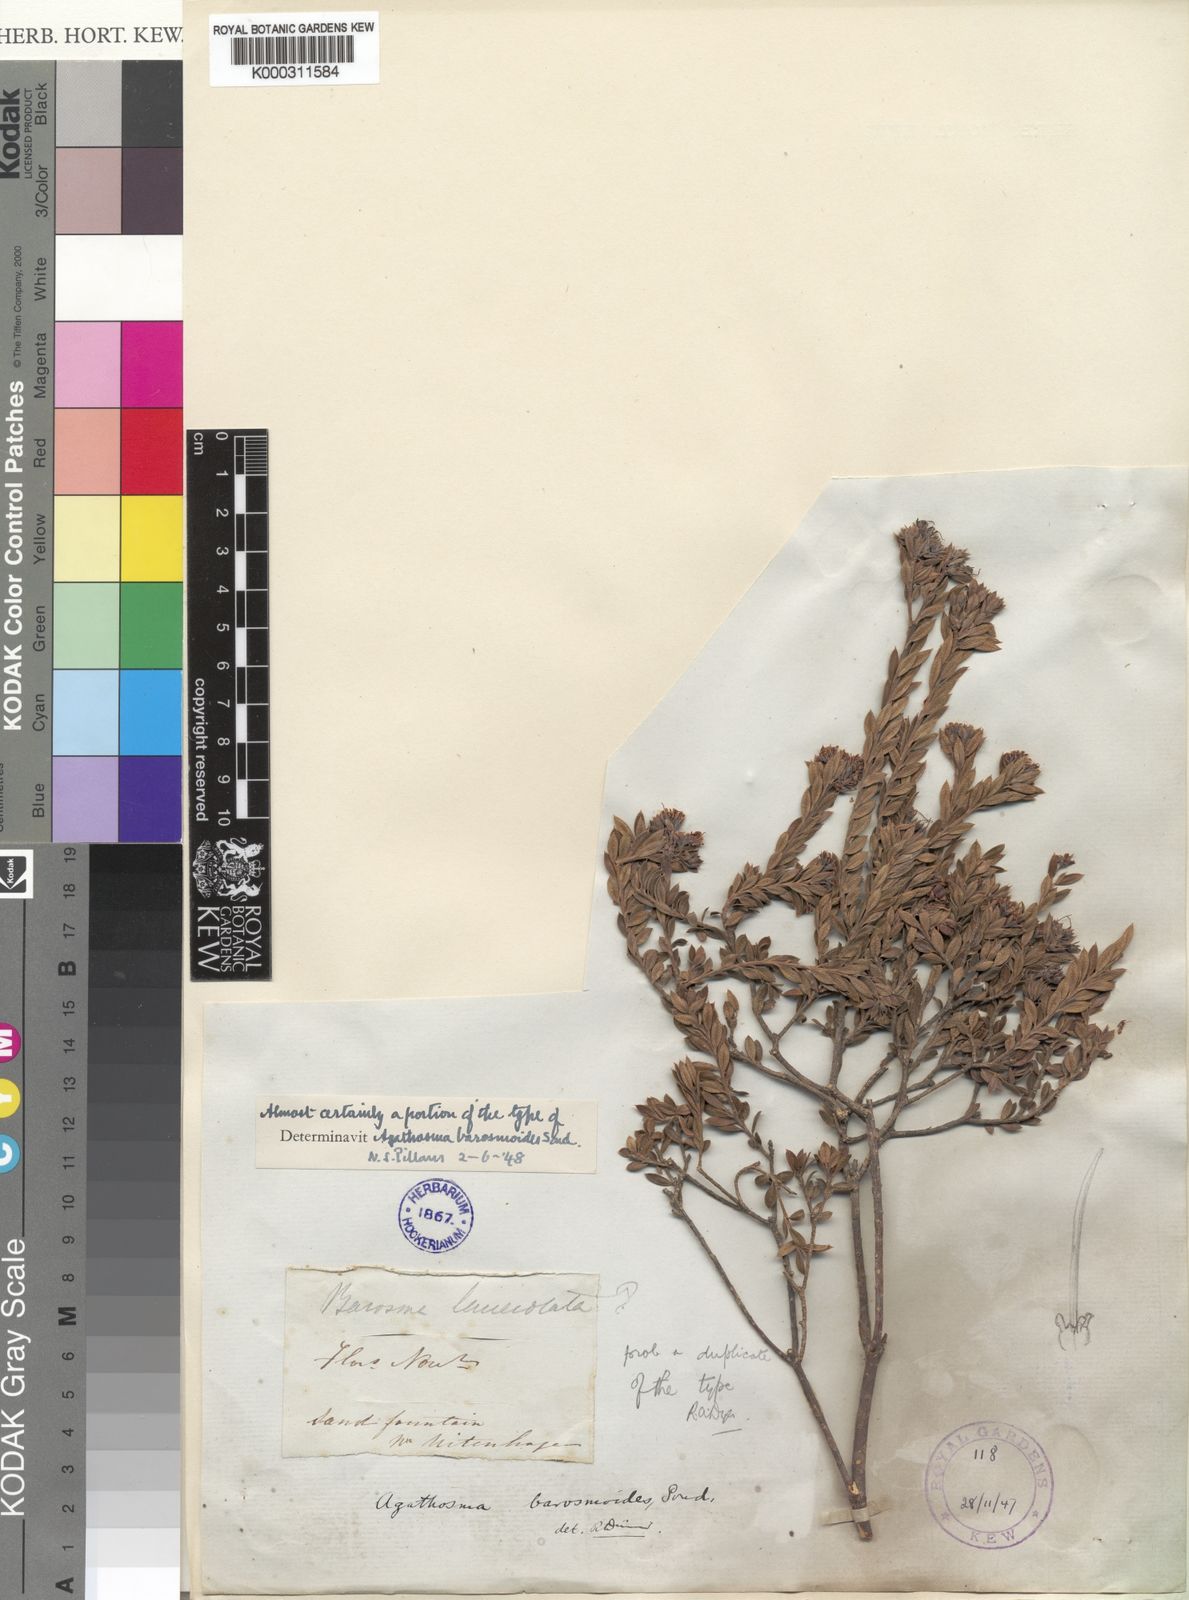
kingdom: Plantae
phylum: Tracheophyta
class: Magnoliopsida
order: Sapindales
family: Rutaceae
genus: Agathosma
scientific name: Agathosma puberula
